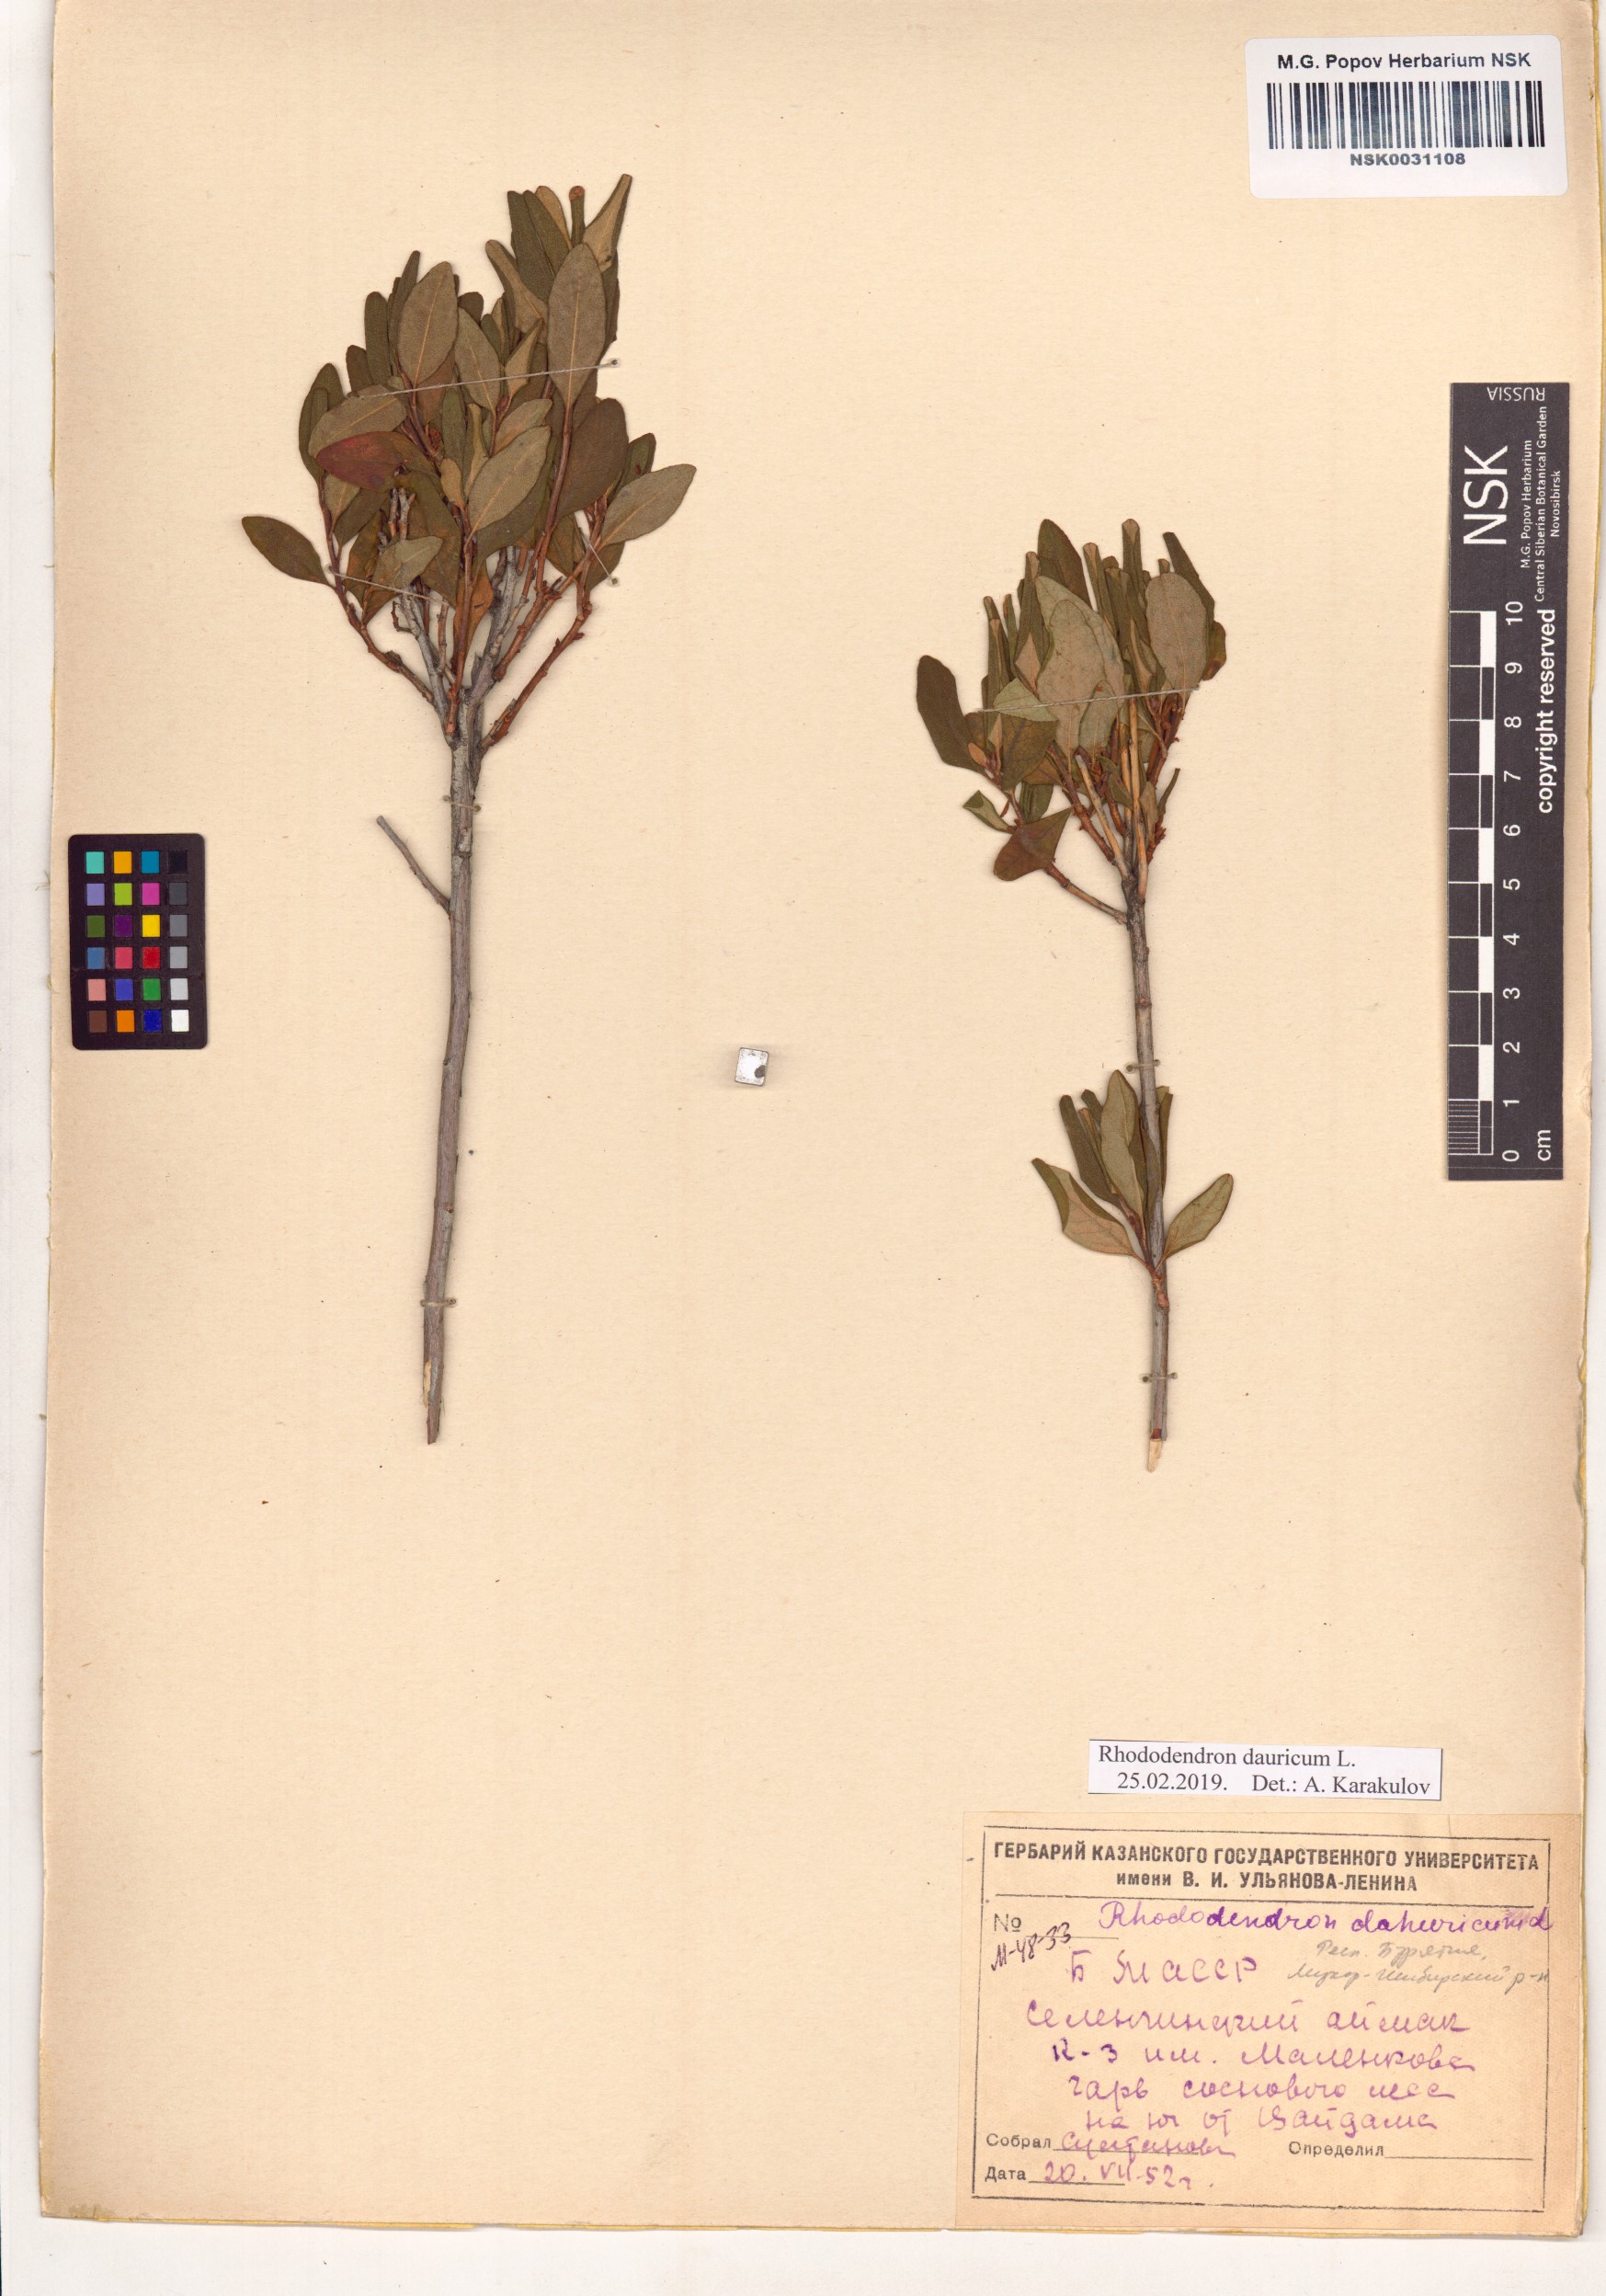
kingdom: Plantae
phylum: Tracheophyta
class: Magnoliopsida
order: Ericales
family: Ericaceae
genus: Rhododendron
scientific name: Rhododendron dauricum
